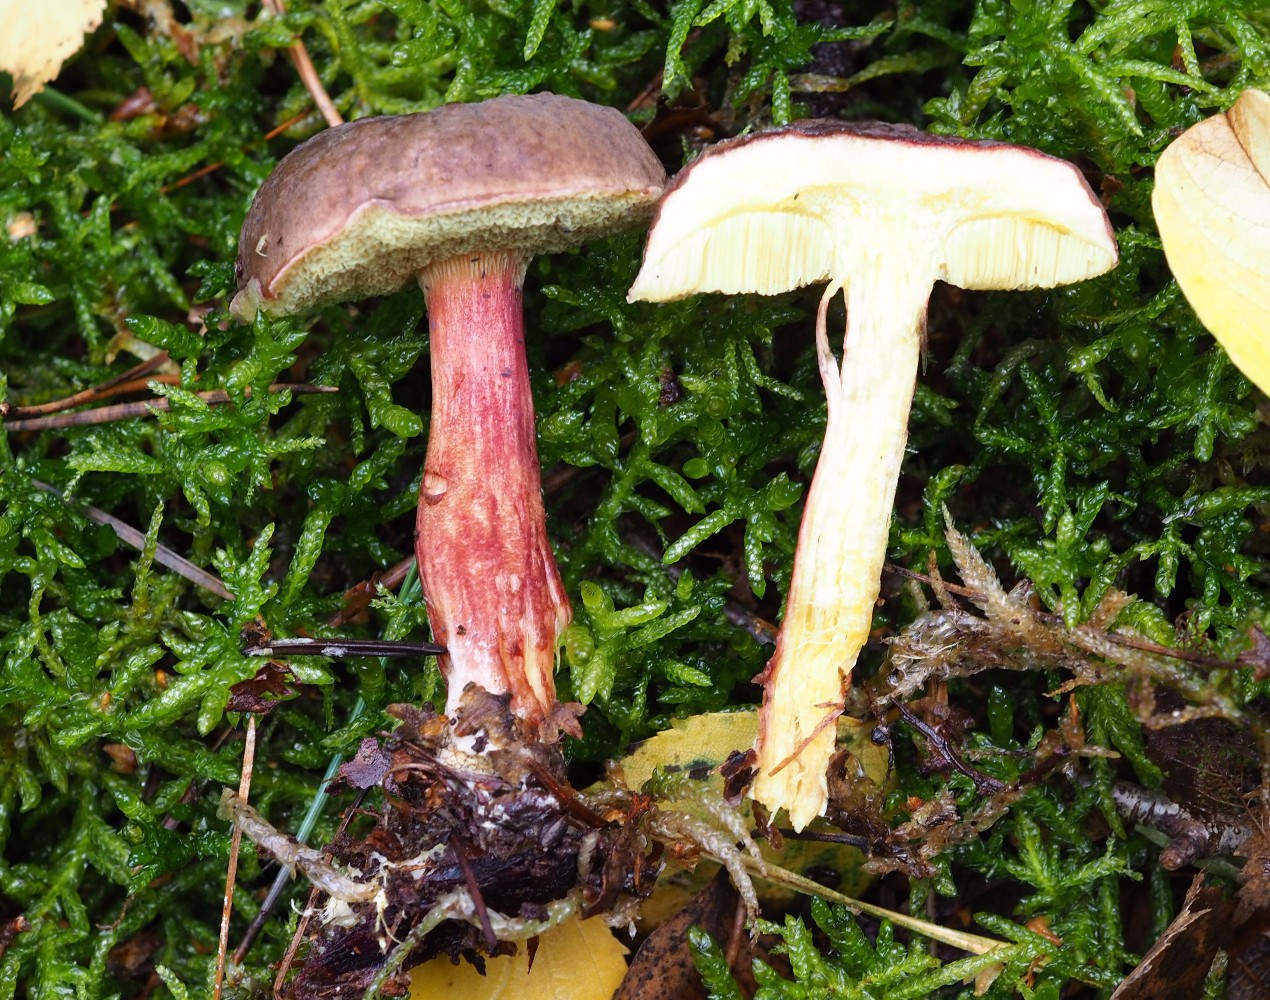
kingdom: Fungi
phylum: Basidiomycota
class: Agaricomycetes
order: Boletales
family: Boletaceae
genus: Xerocomellus
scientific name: Xerocomellus chrysenteron
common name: rødsprukken rørhat
